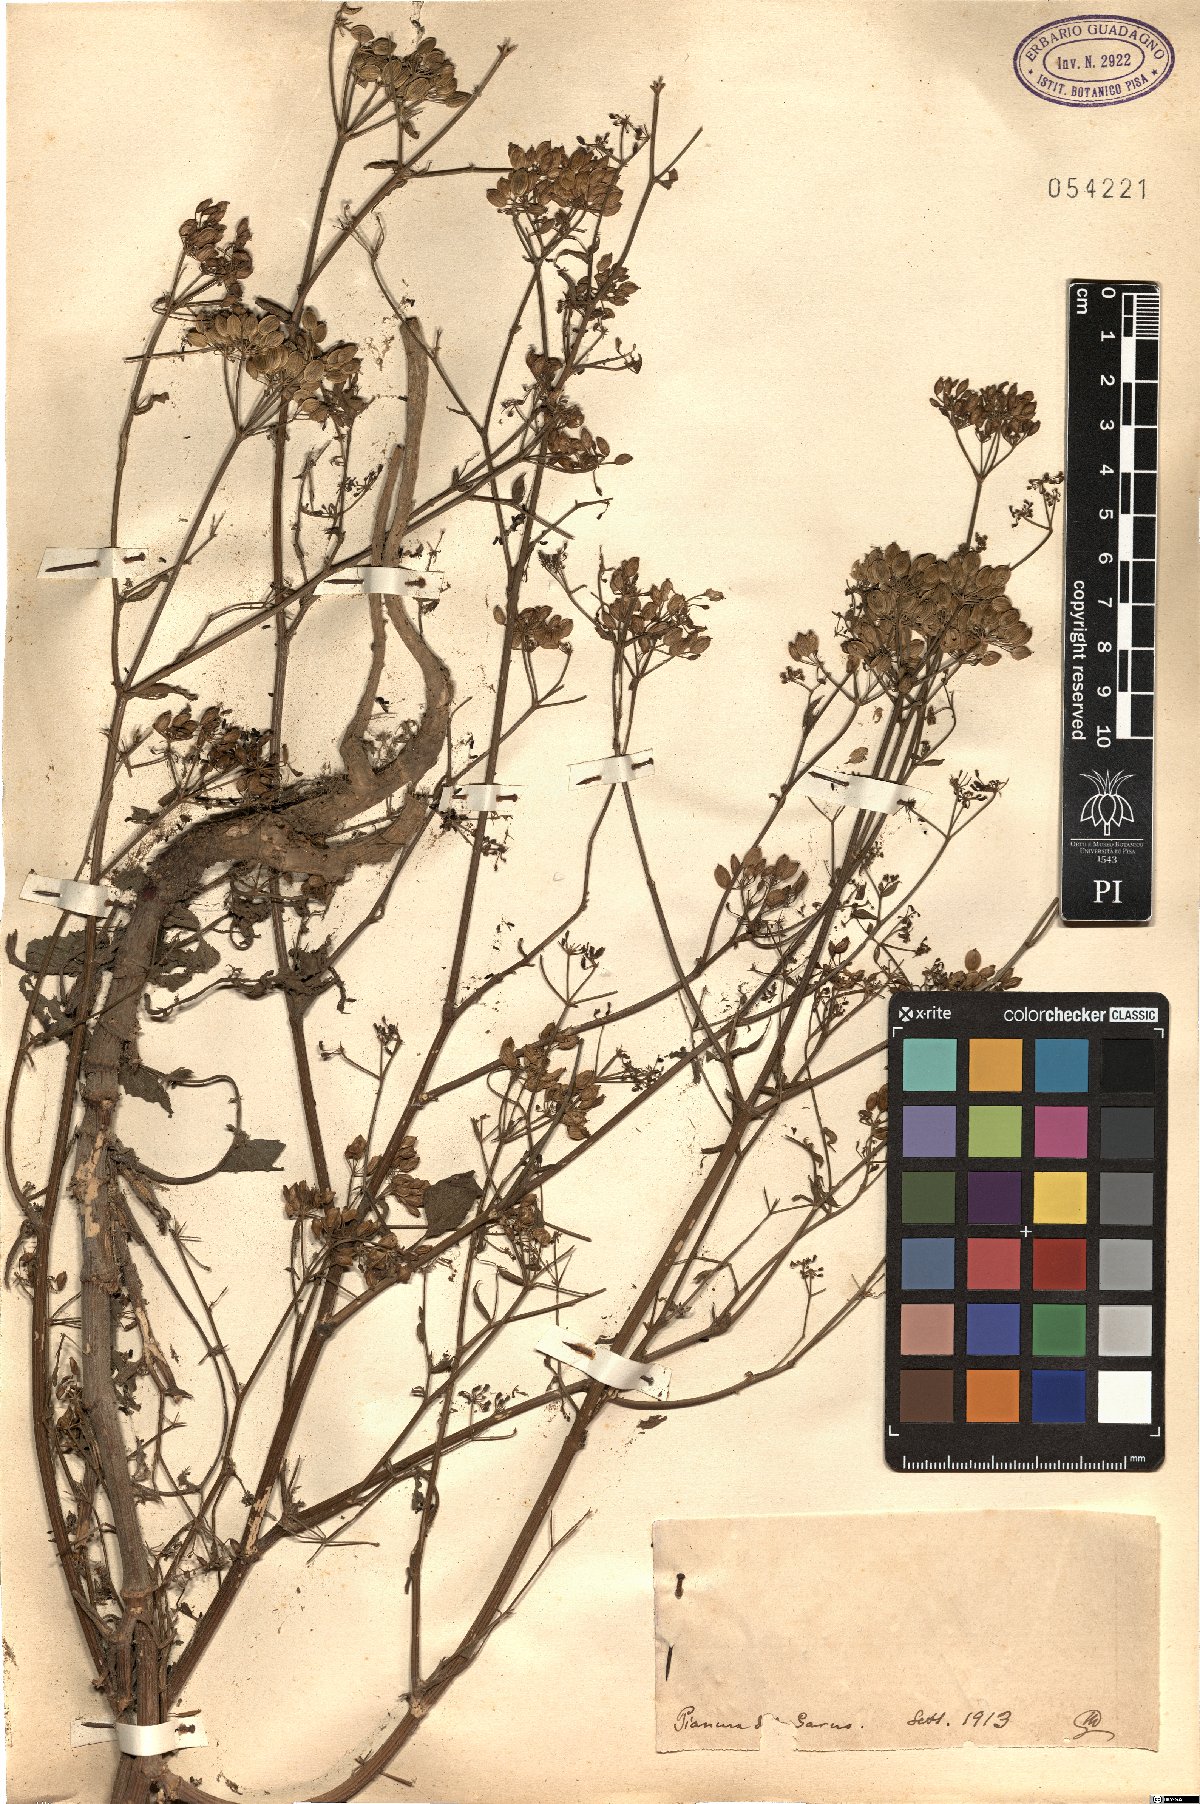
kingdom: Plantae
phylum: Tracheophyta
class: Magnoliopsida
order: Apiales
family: Apiaceae
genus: Pastinaca
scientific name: Pastinaca
